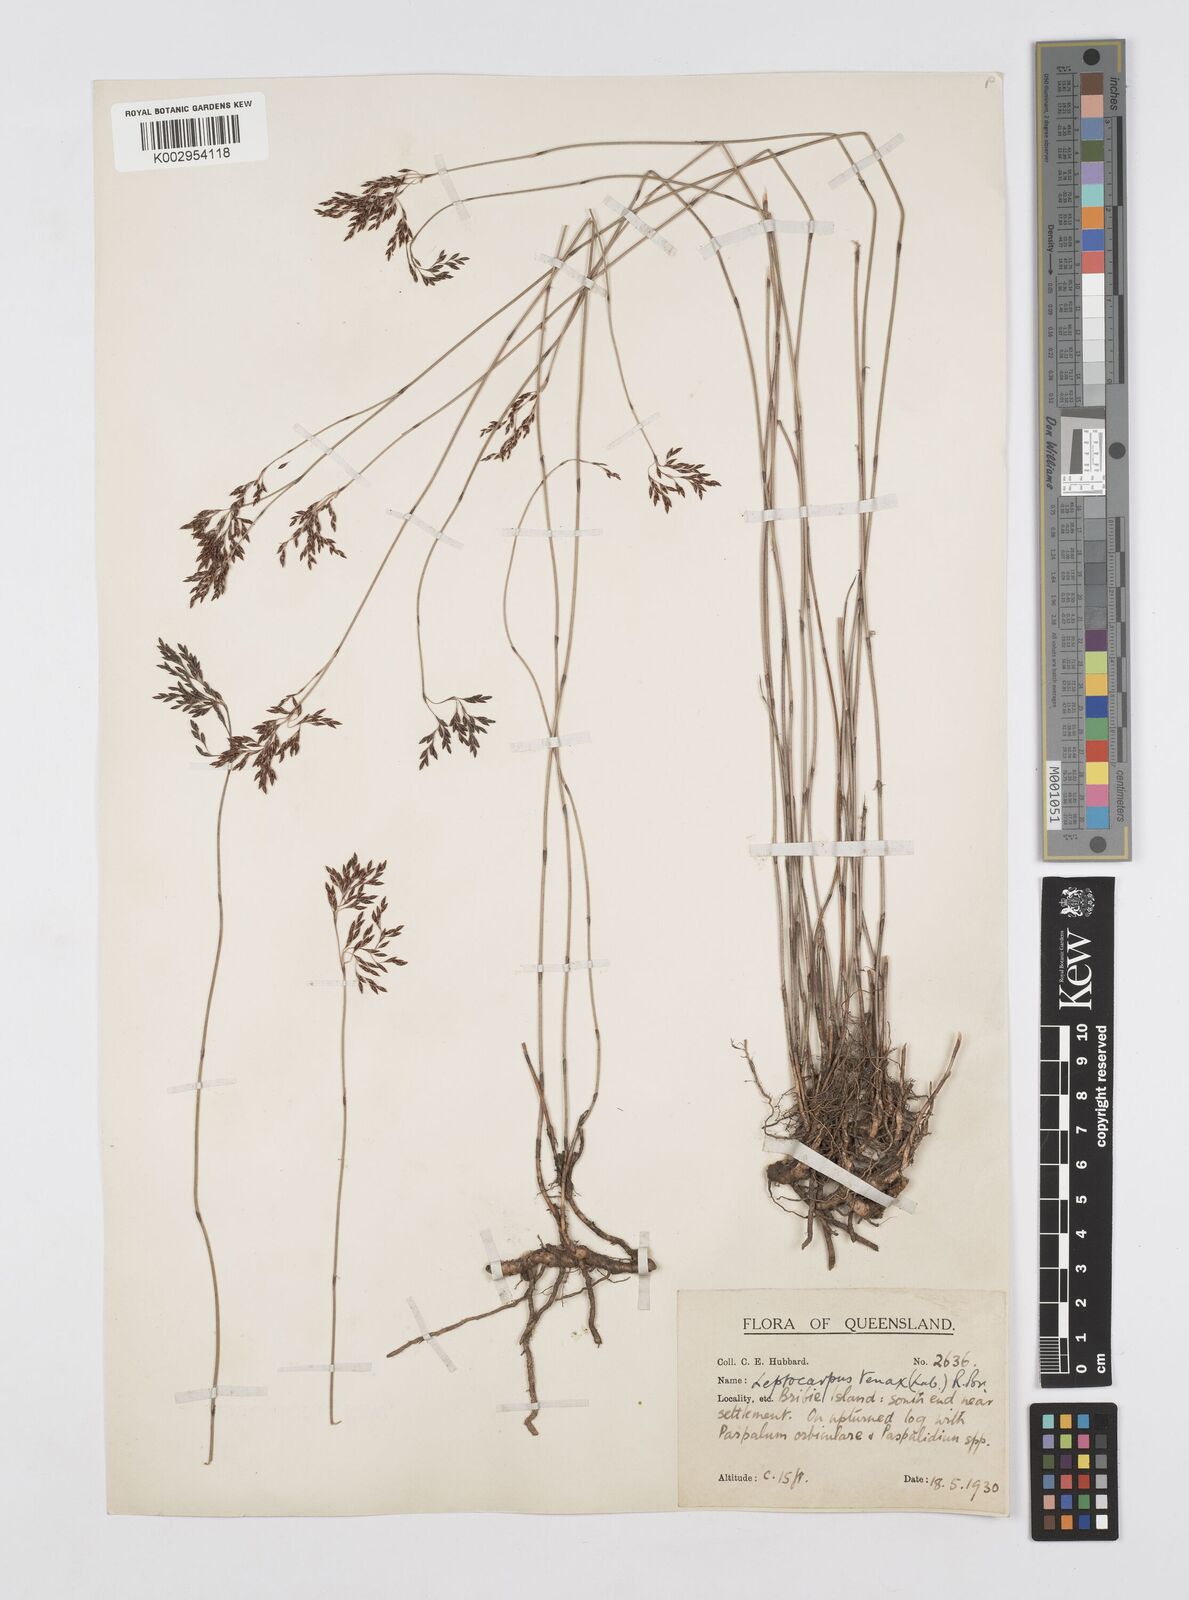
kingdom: Plantae
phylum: Tracheophyta
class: Liliopsida
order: Poales
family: Restionaceae
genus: Leptocarpus
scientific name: Leptocarpus tenax
